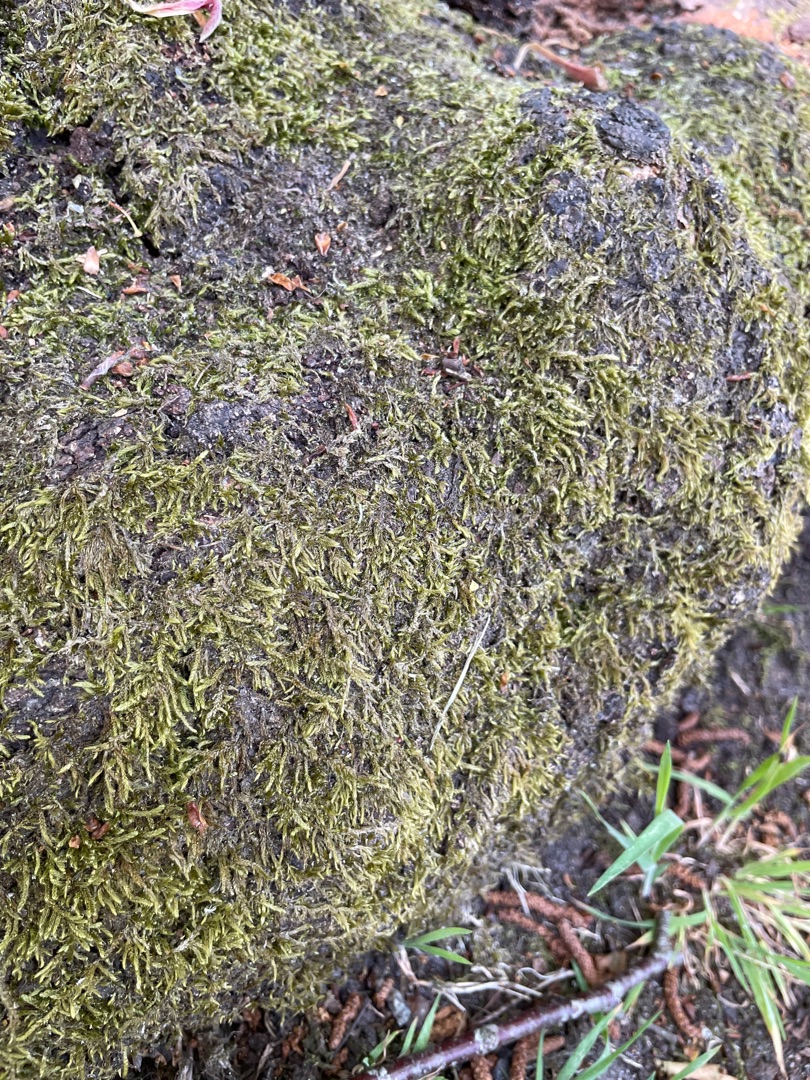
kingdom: Plantae
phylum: Bryophyta
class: Bryopsida
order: Hypnales
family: Hypnaceae
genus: Hypnum
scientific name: Hypnum cupressiforme
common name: Almindelig cypresmos
